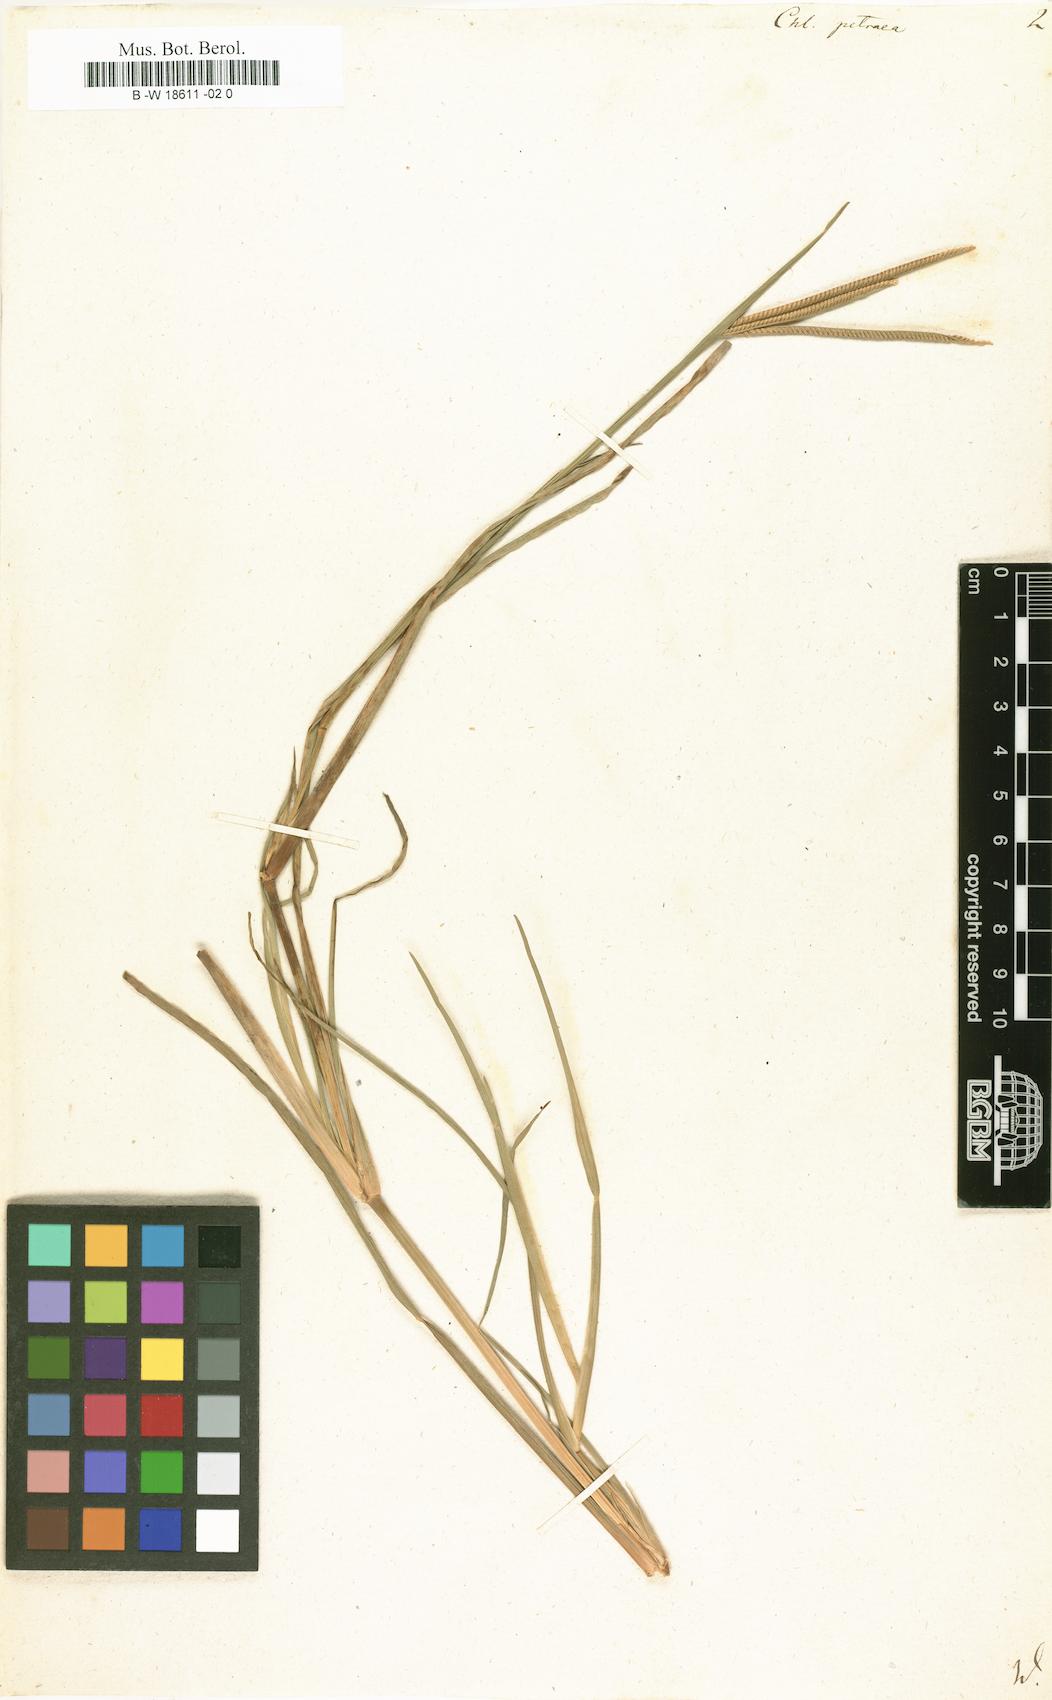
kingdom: Plantae
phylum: Tracheophyta
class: Liliopsida
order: Poales
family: Poaceae
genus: Eustachys
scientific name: Eustachys petraea
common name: Pinewoods fingergrass
